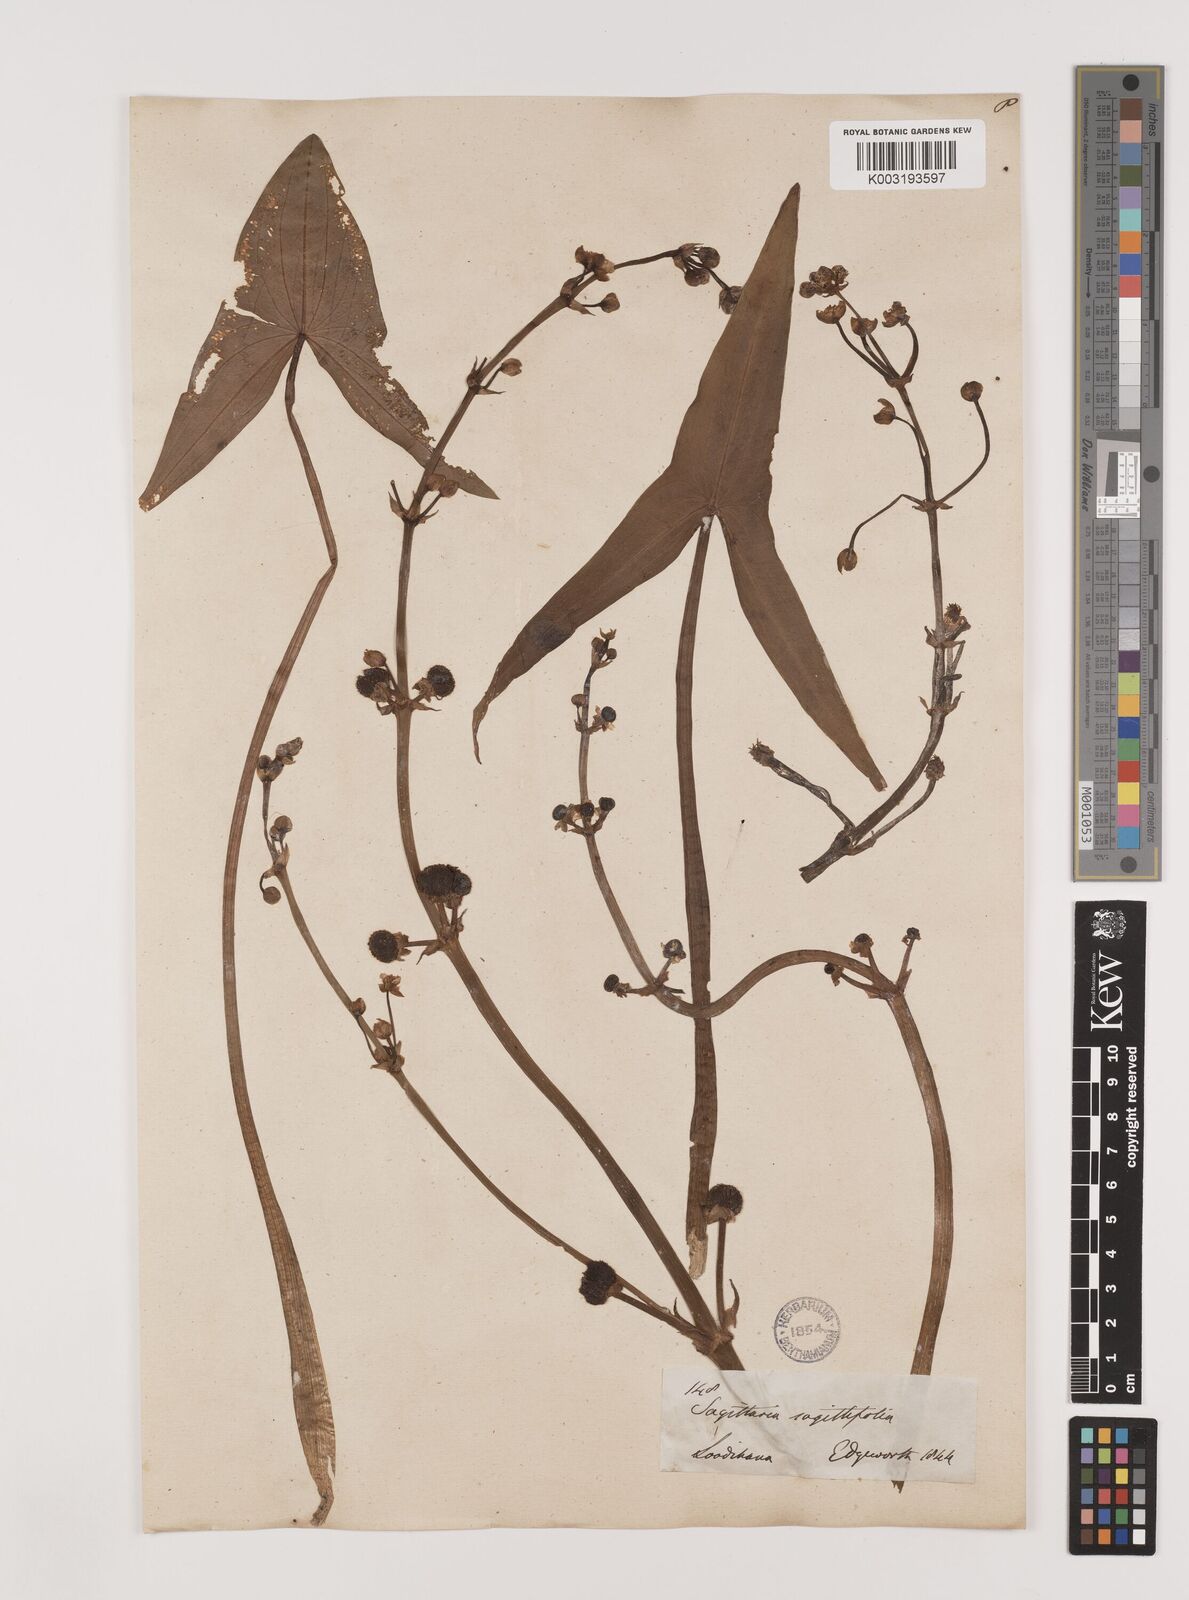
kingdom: Plantae
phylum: Tracheophyta
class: Liliopsida
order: Alismatales
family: Alismataceae
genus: Sagittaria
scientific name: Sagittaria sagittifolia
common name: Arrowhead
